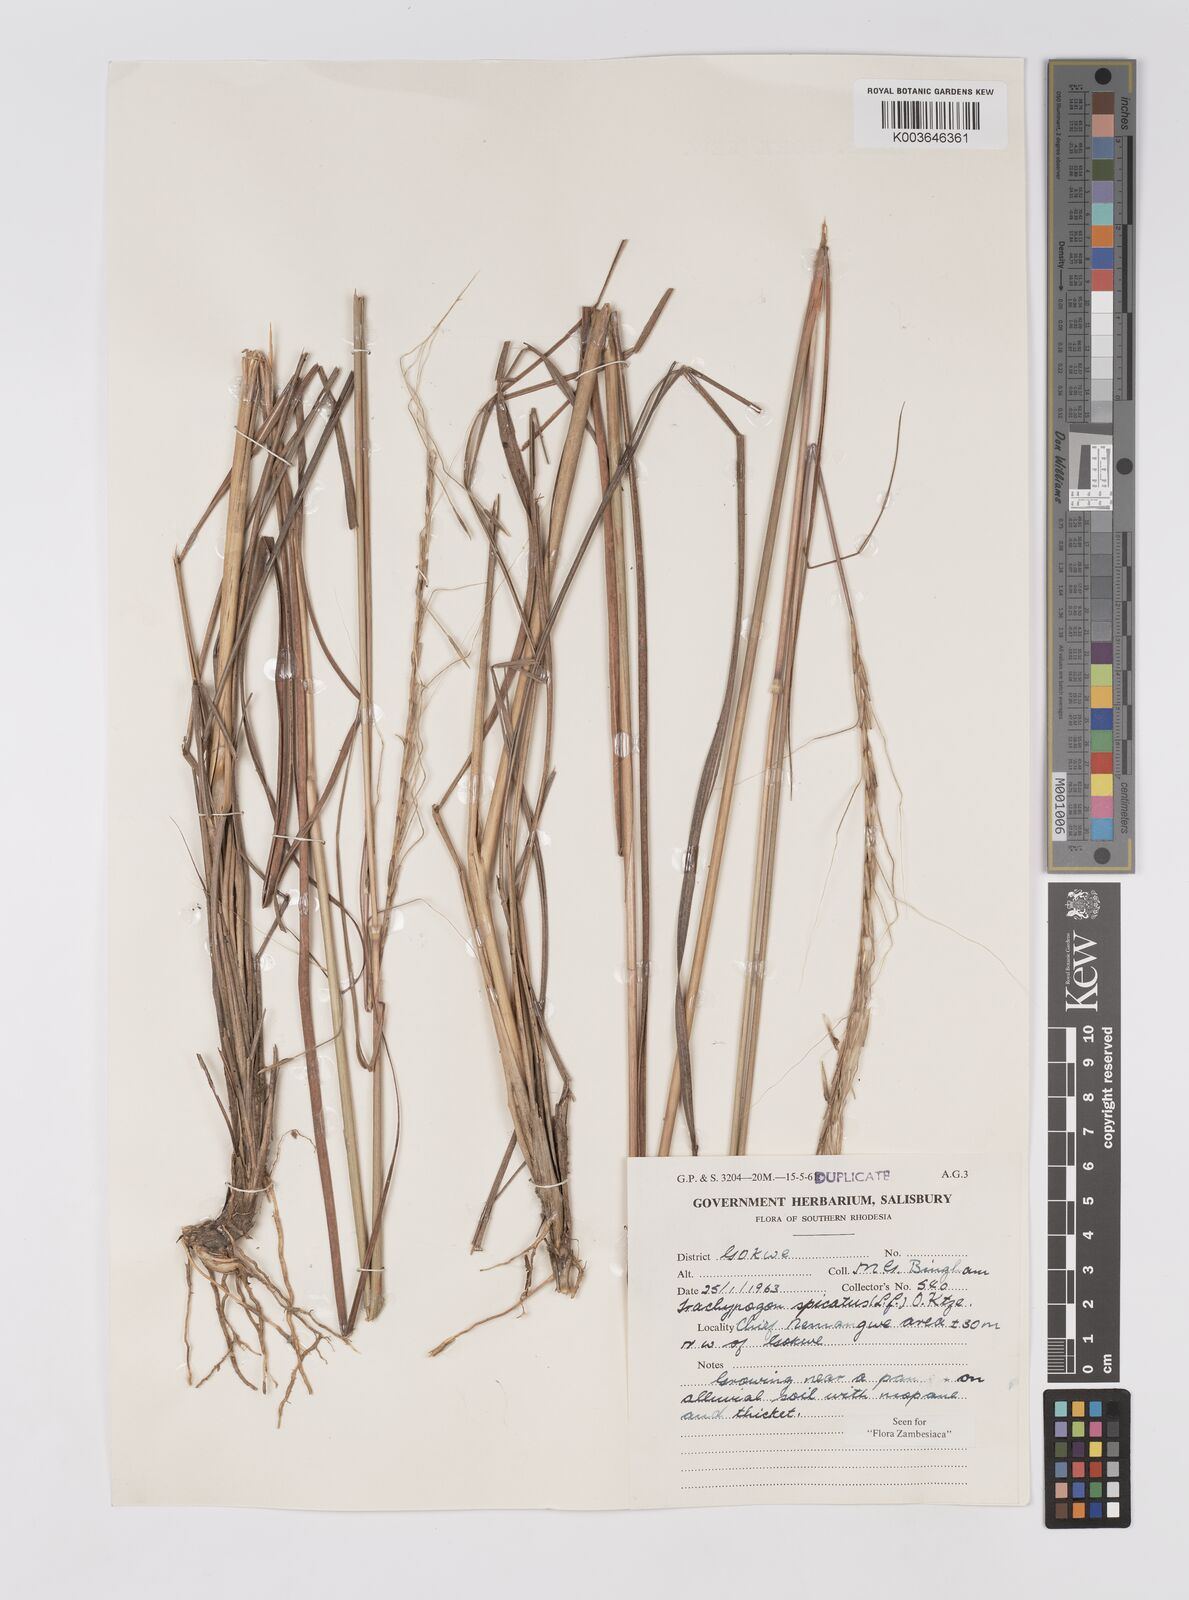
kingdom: Plantae
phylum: Tracheophyta
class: Liliopsida
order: Poales
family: Poaceae
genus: Trachypogon
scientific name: Trachypogon spicatus
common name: Crinkle-awn
